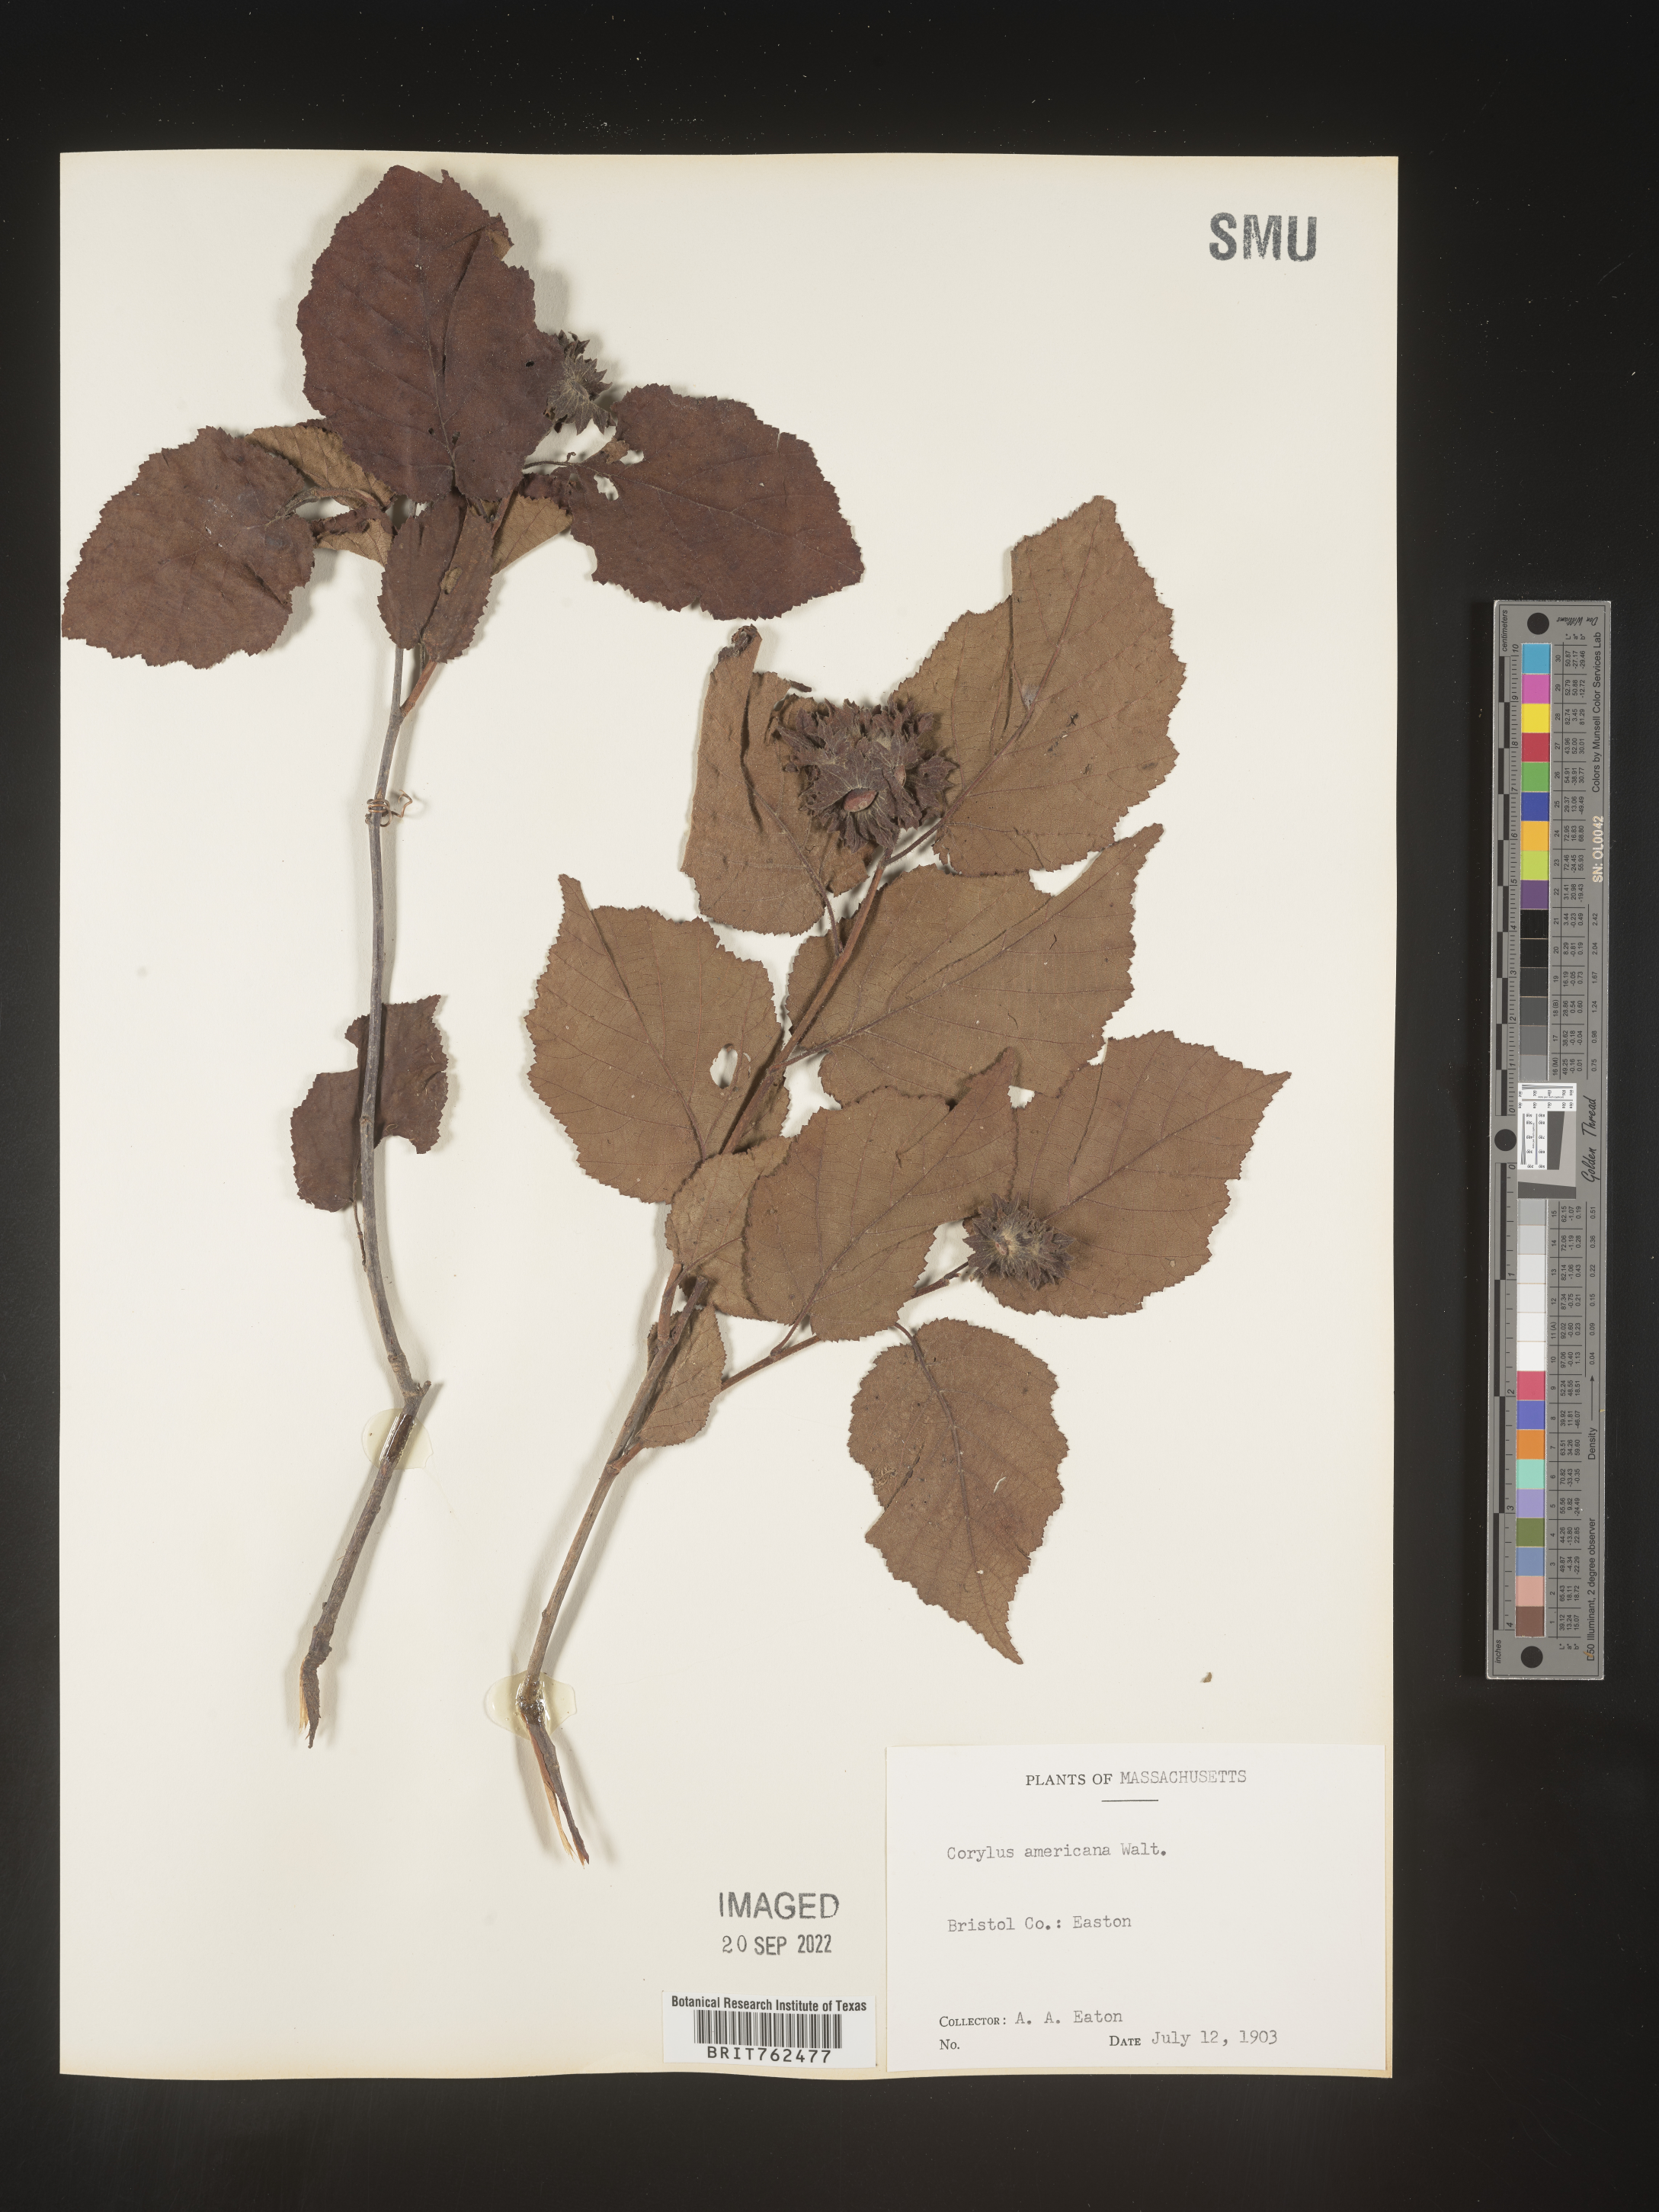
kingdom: Plantae
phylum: Tracheophyta
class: Magnoliopsida
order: Fagales
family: Betulaceae
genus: Corylus
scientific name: Corylus americana
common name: American hazel
